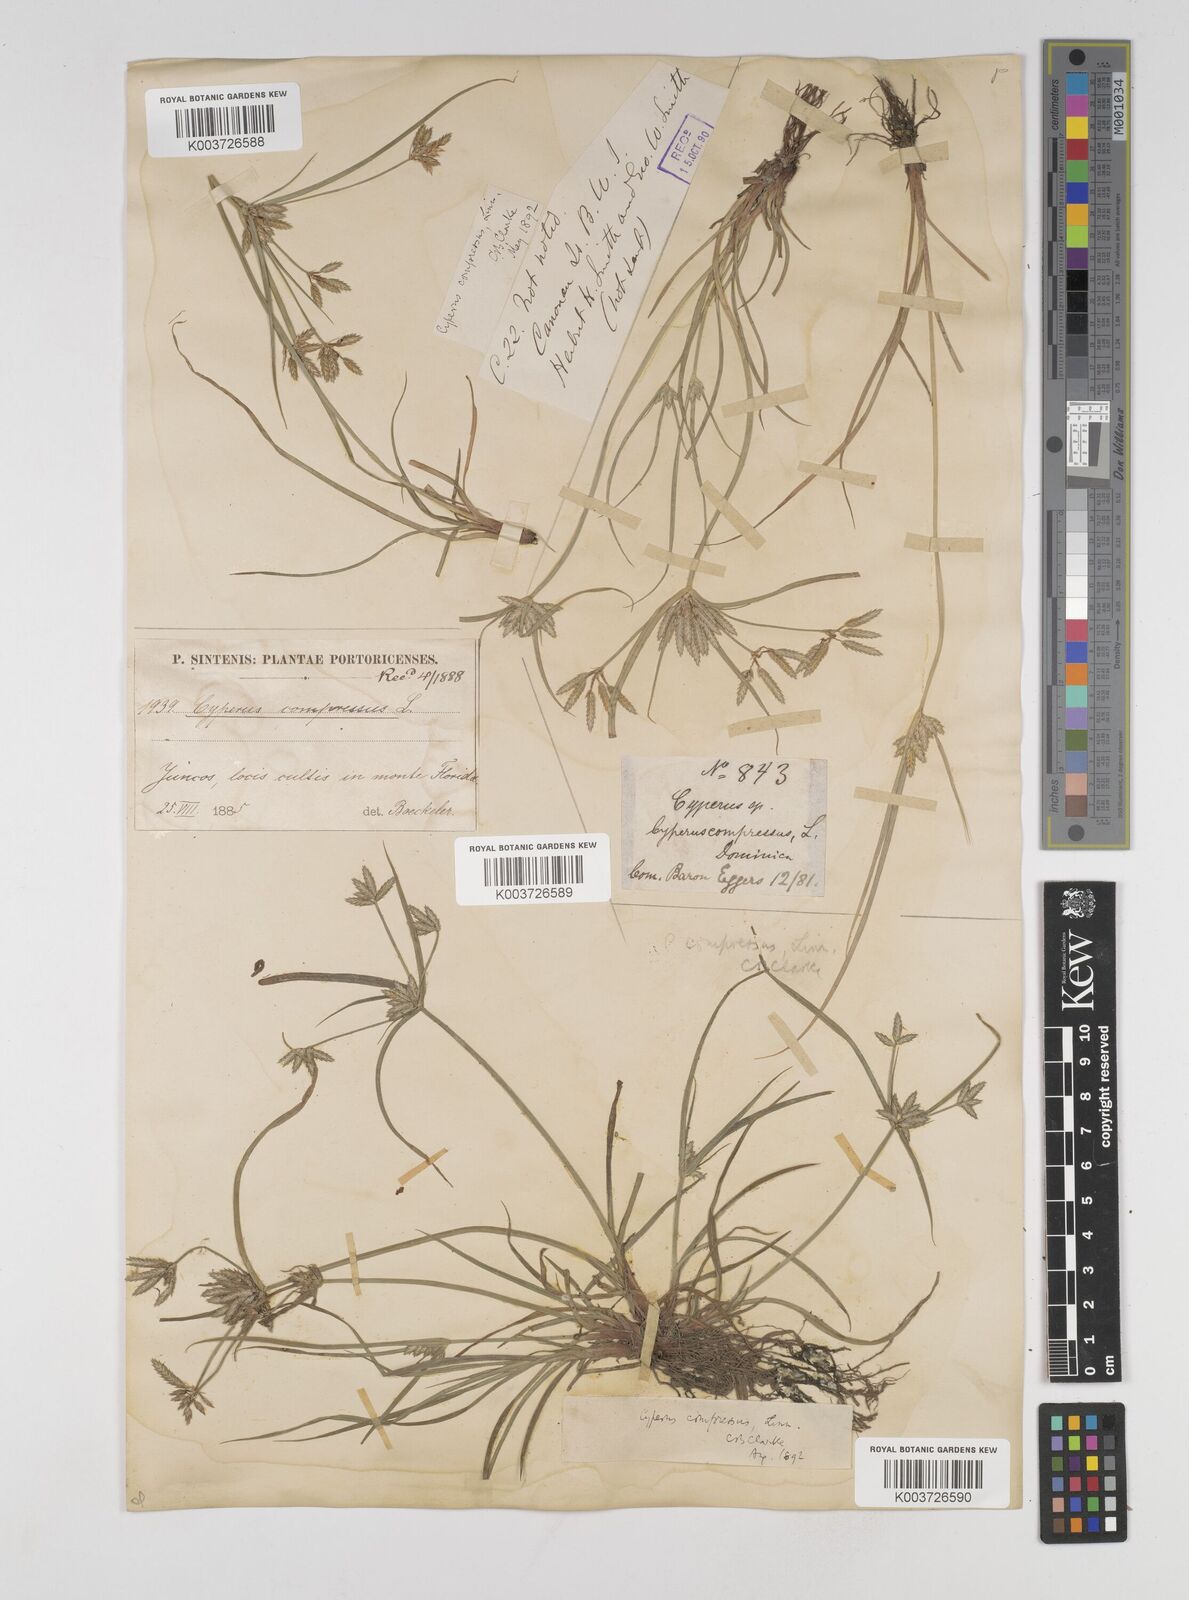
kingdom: Plantae
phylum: Tracheophyta
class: Liliopsida
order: Poales
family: Cyperaceae
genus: Cyperus
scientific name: Cyperus compressus
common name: Poorland flatsedge
